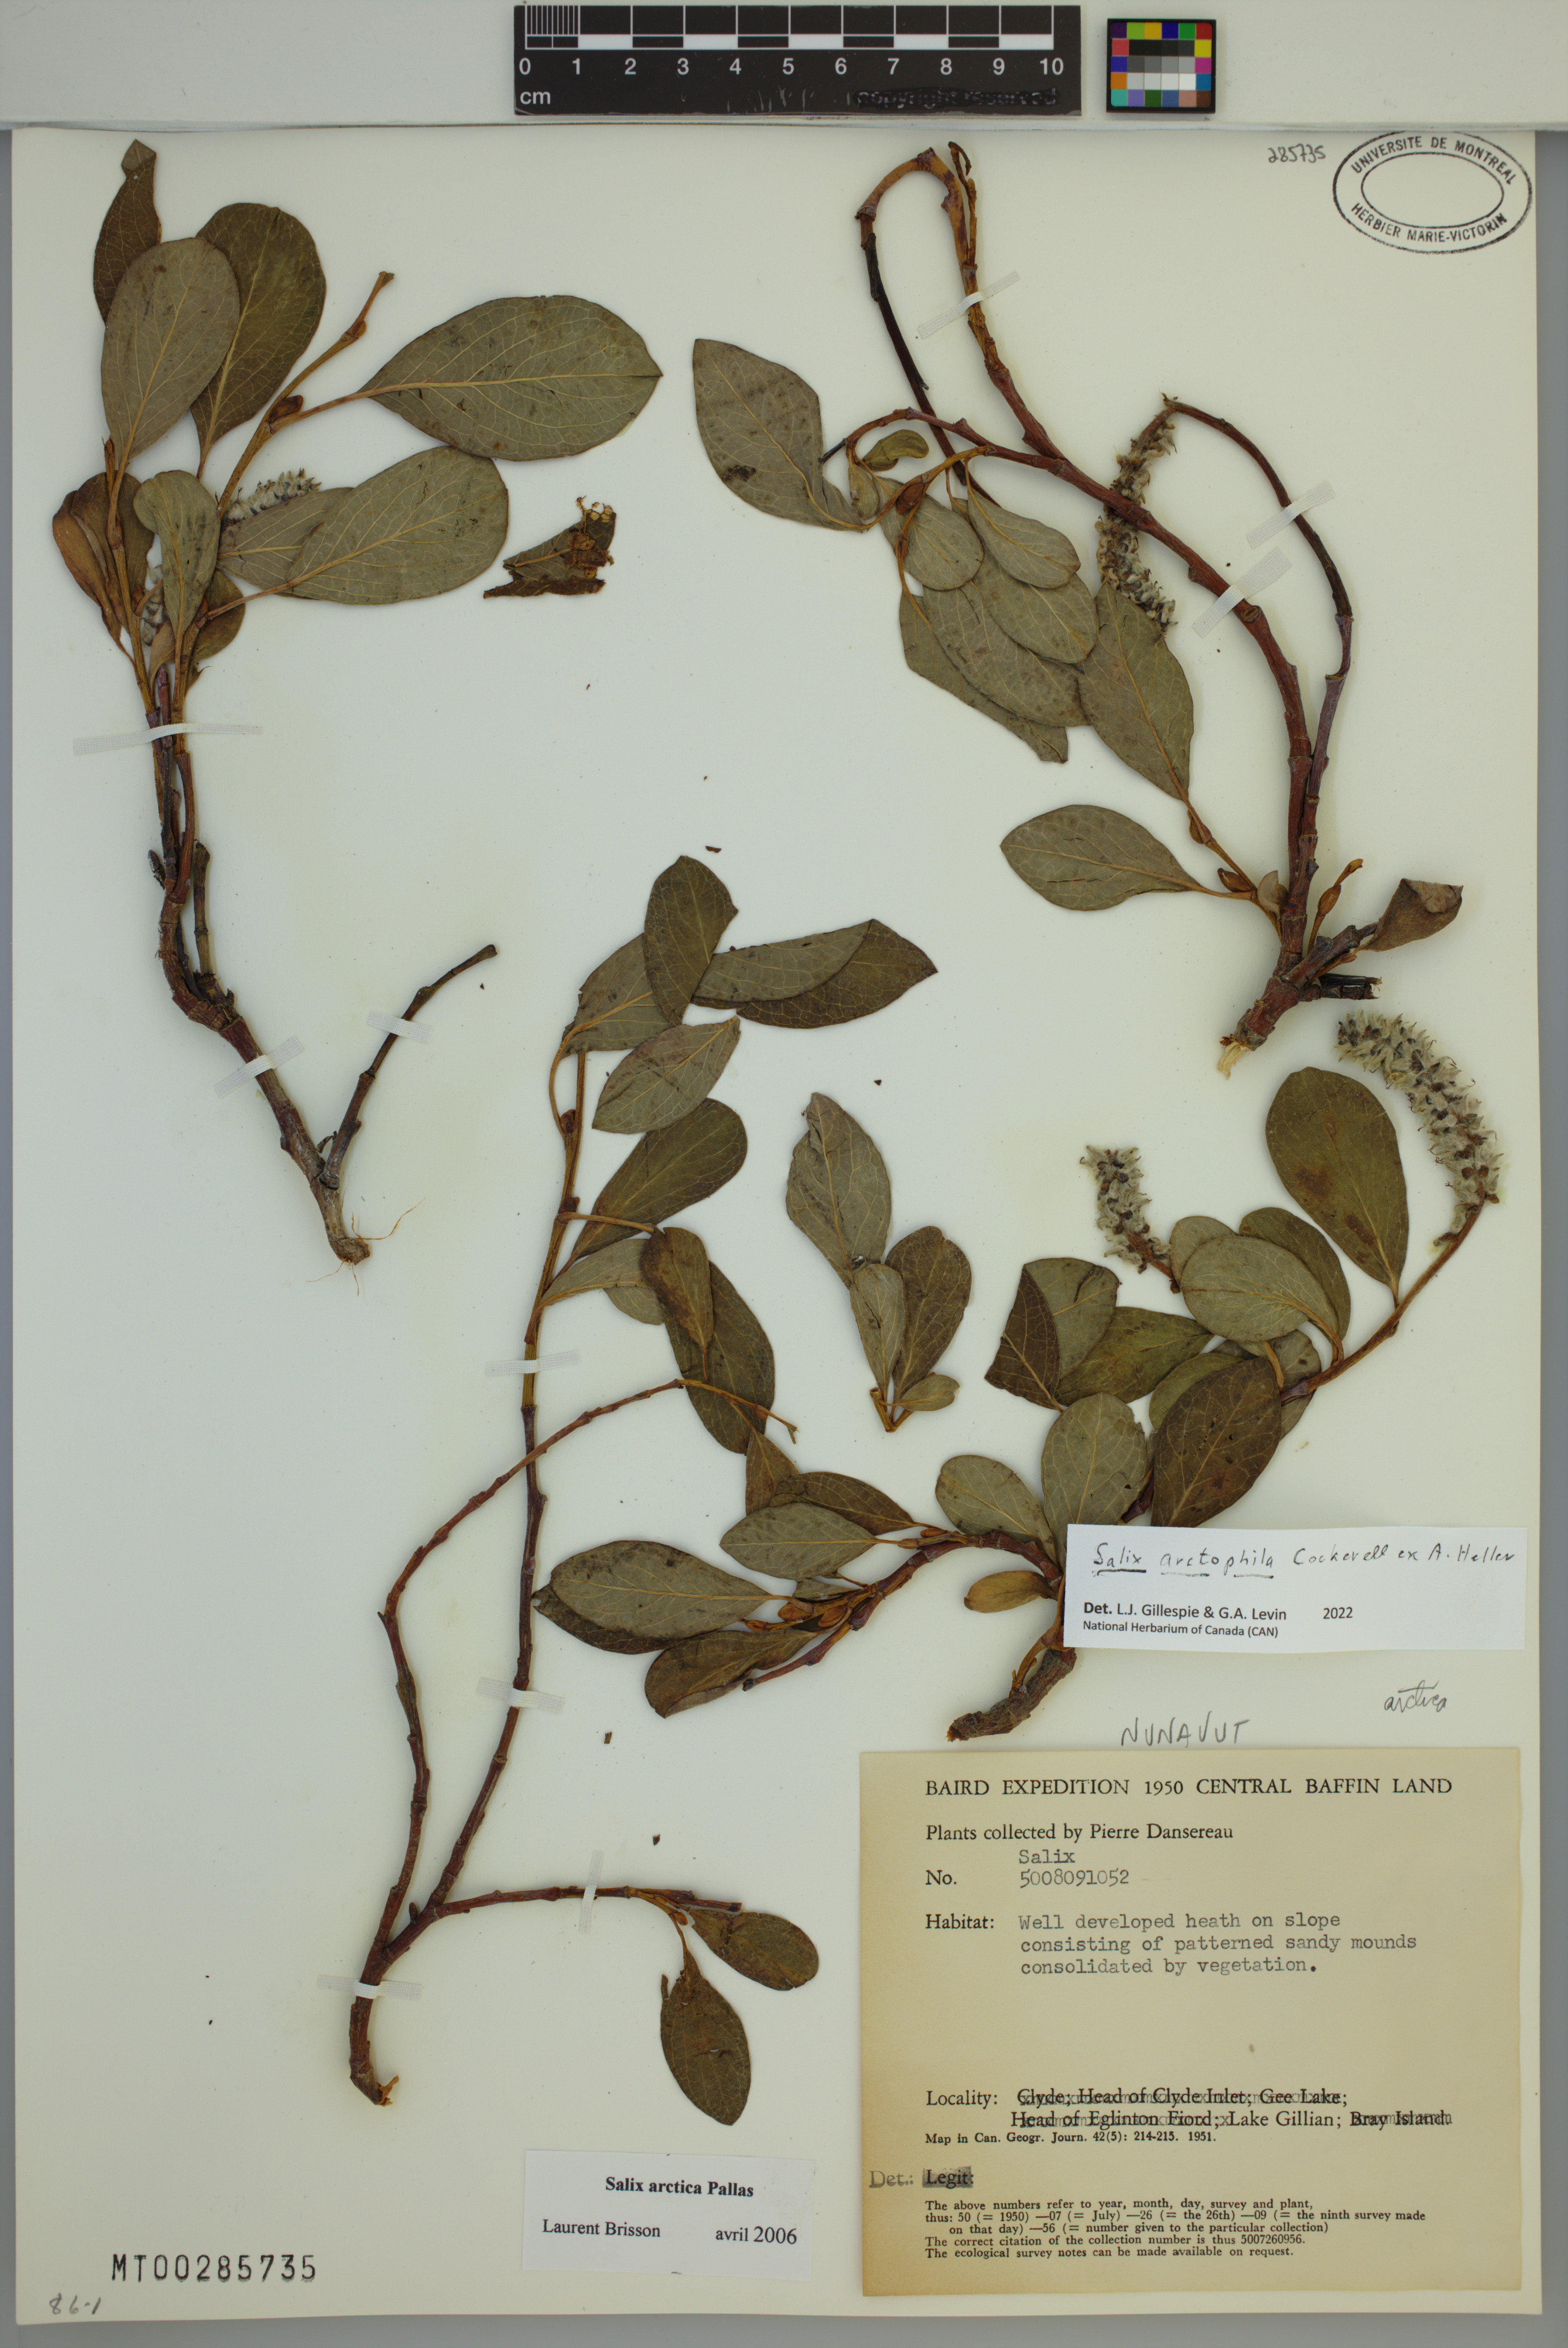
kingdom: Plantae
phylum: Tracheophyta
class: Magnoliopsida
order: Malpighiales
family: Salicaceae
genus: Salix
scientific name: Salix arctophila
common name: Greenland willow
